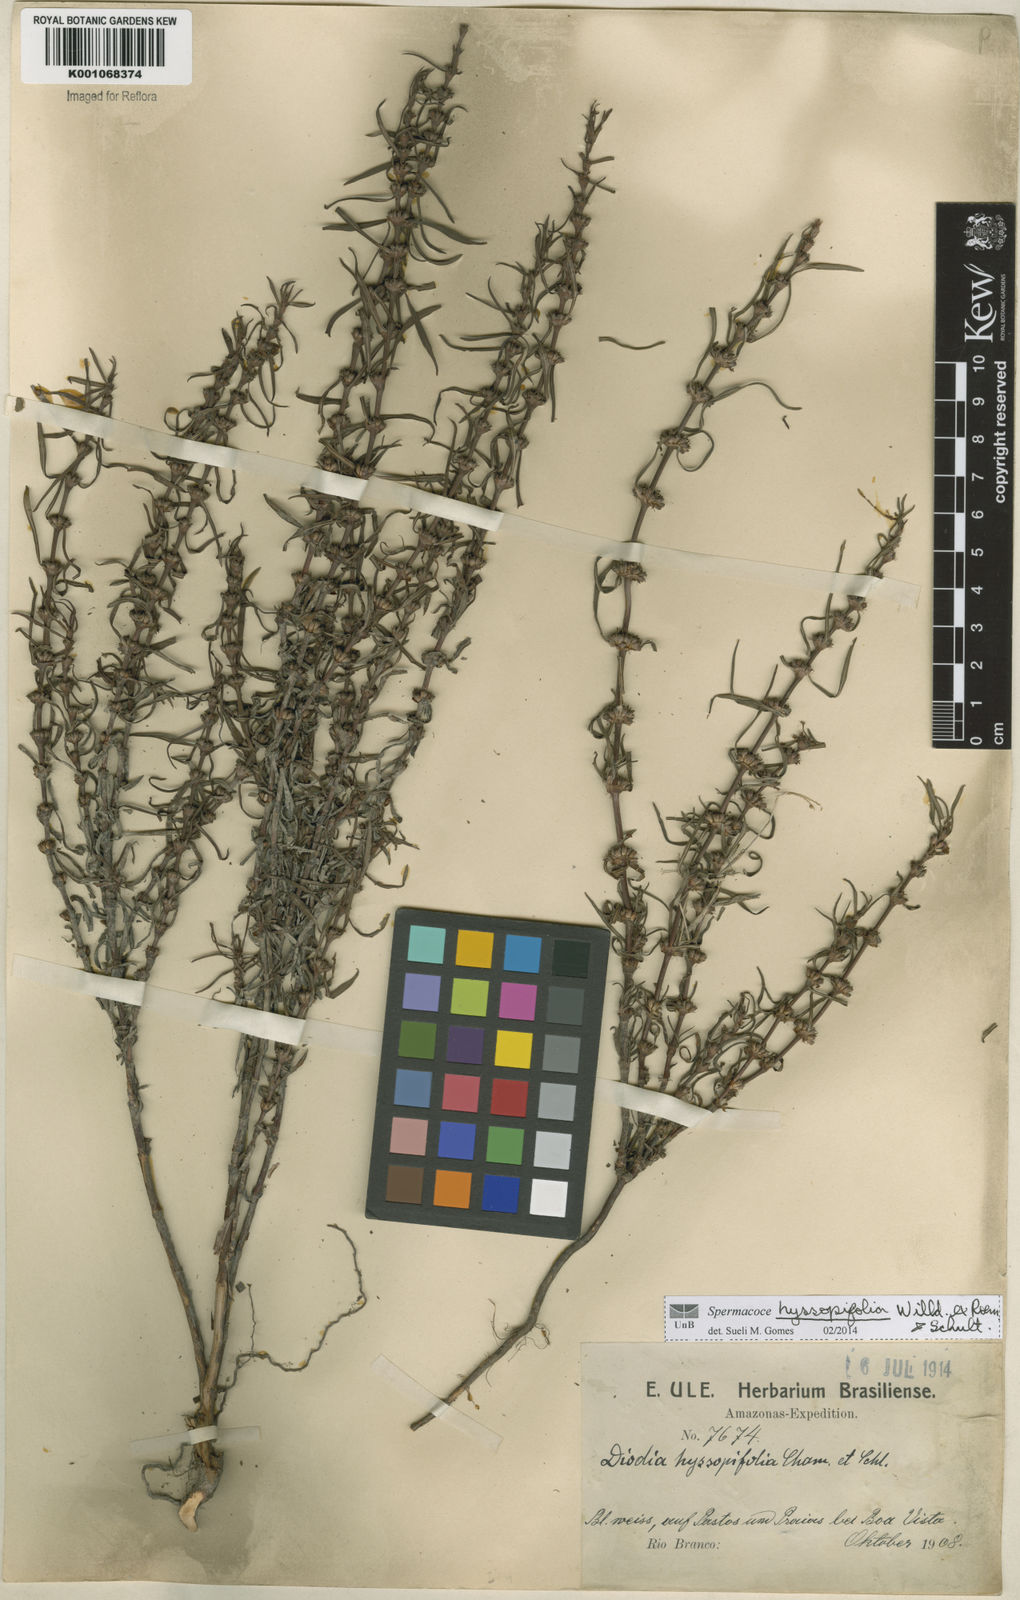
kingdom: Plantae
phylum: Tracheophyta
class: Magnoliopsida
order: Gentianales
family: Rubiaceae
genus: Spermacoce
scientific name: Spermacoce
